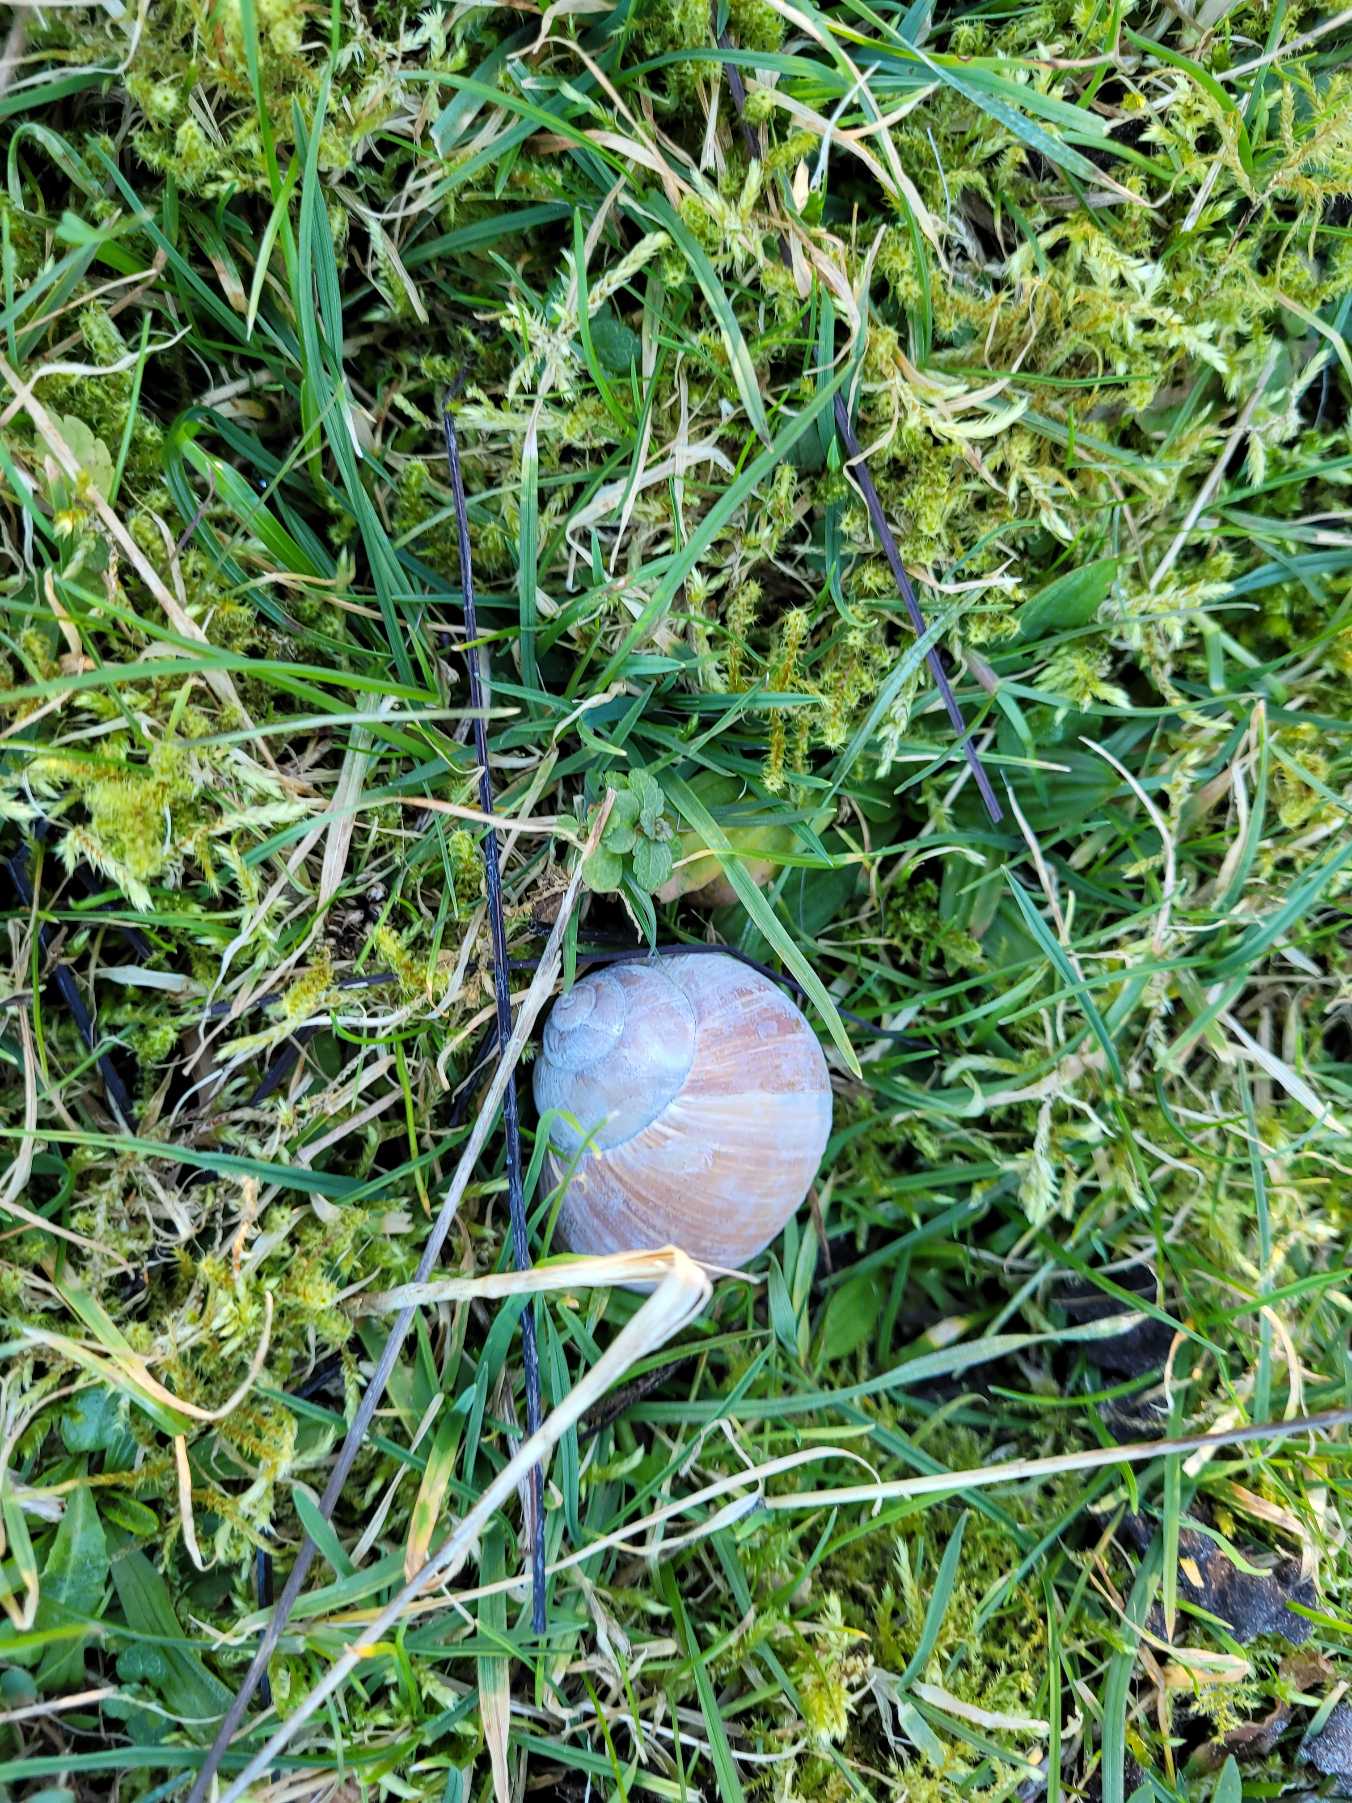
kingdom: Animalia
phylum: Mollusca
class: Gastropoda
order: Stylommatophora
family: Helicidae
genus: Helix
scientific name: Helix pomatia
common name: Vinbjergsnegl
